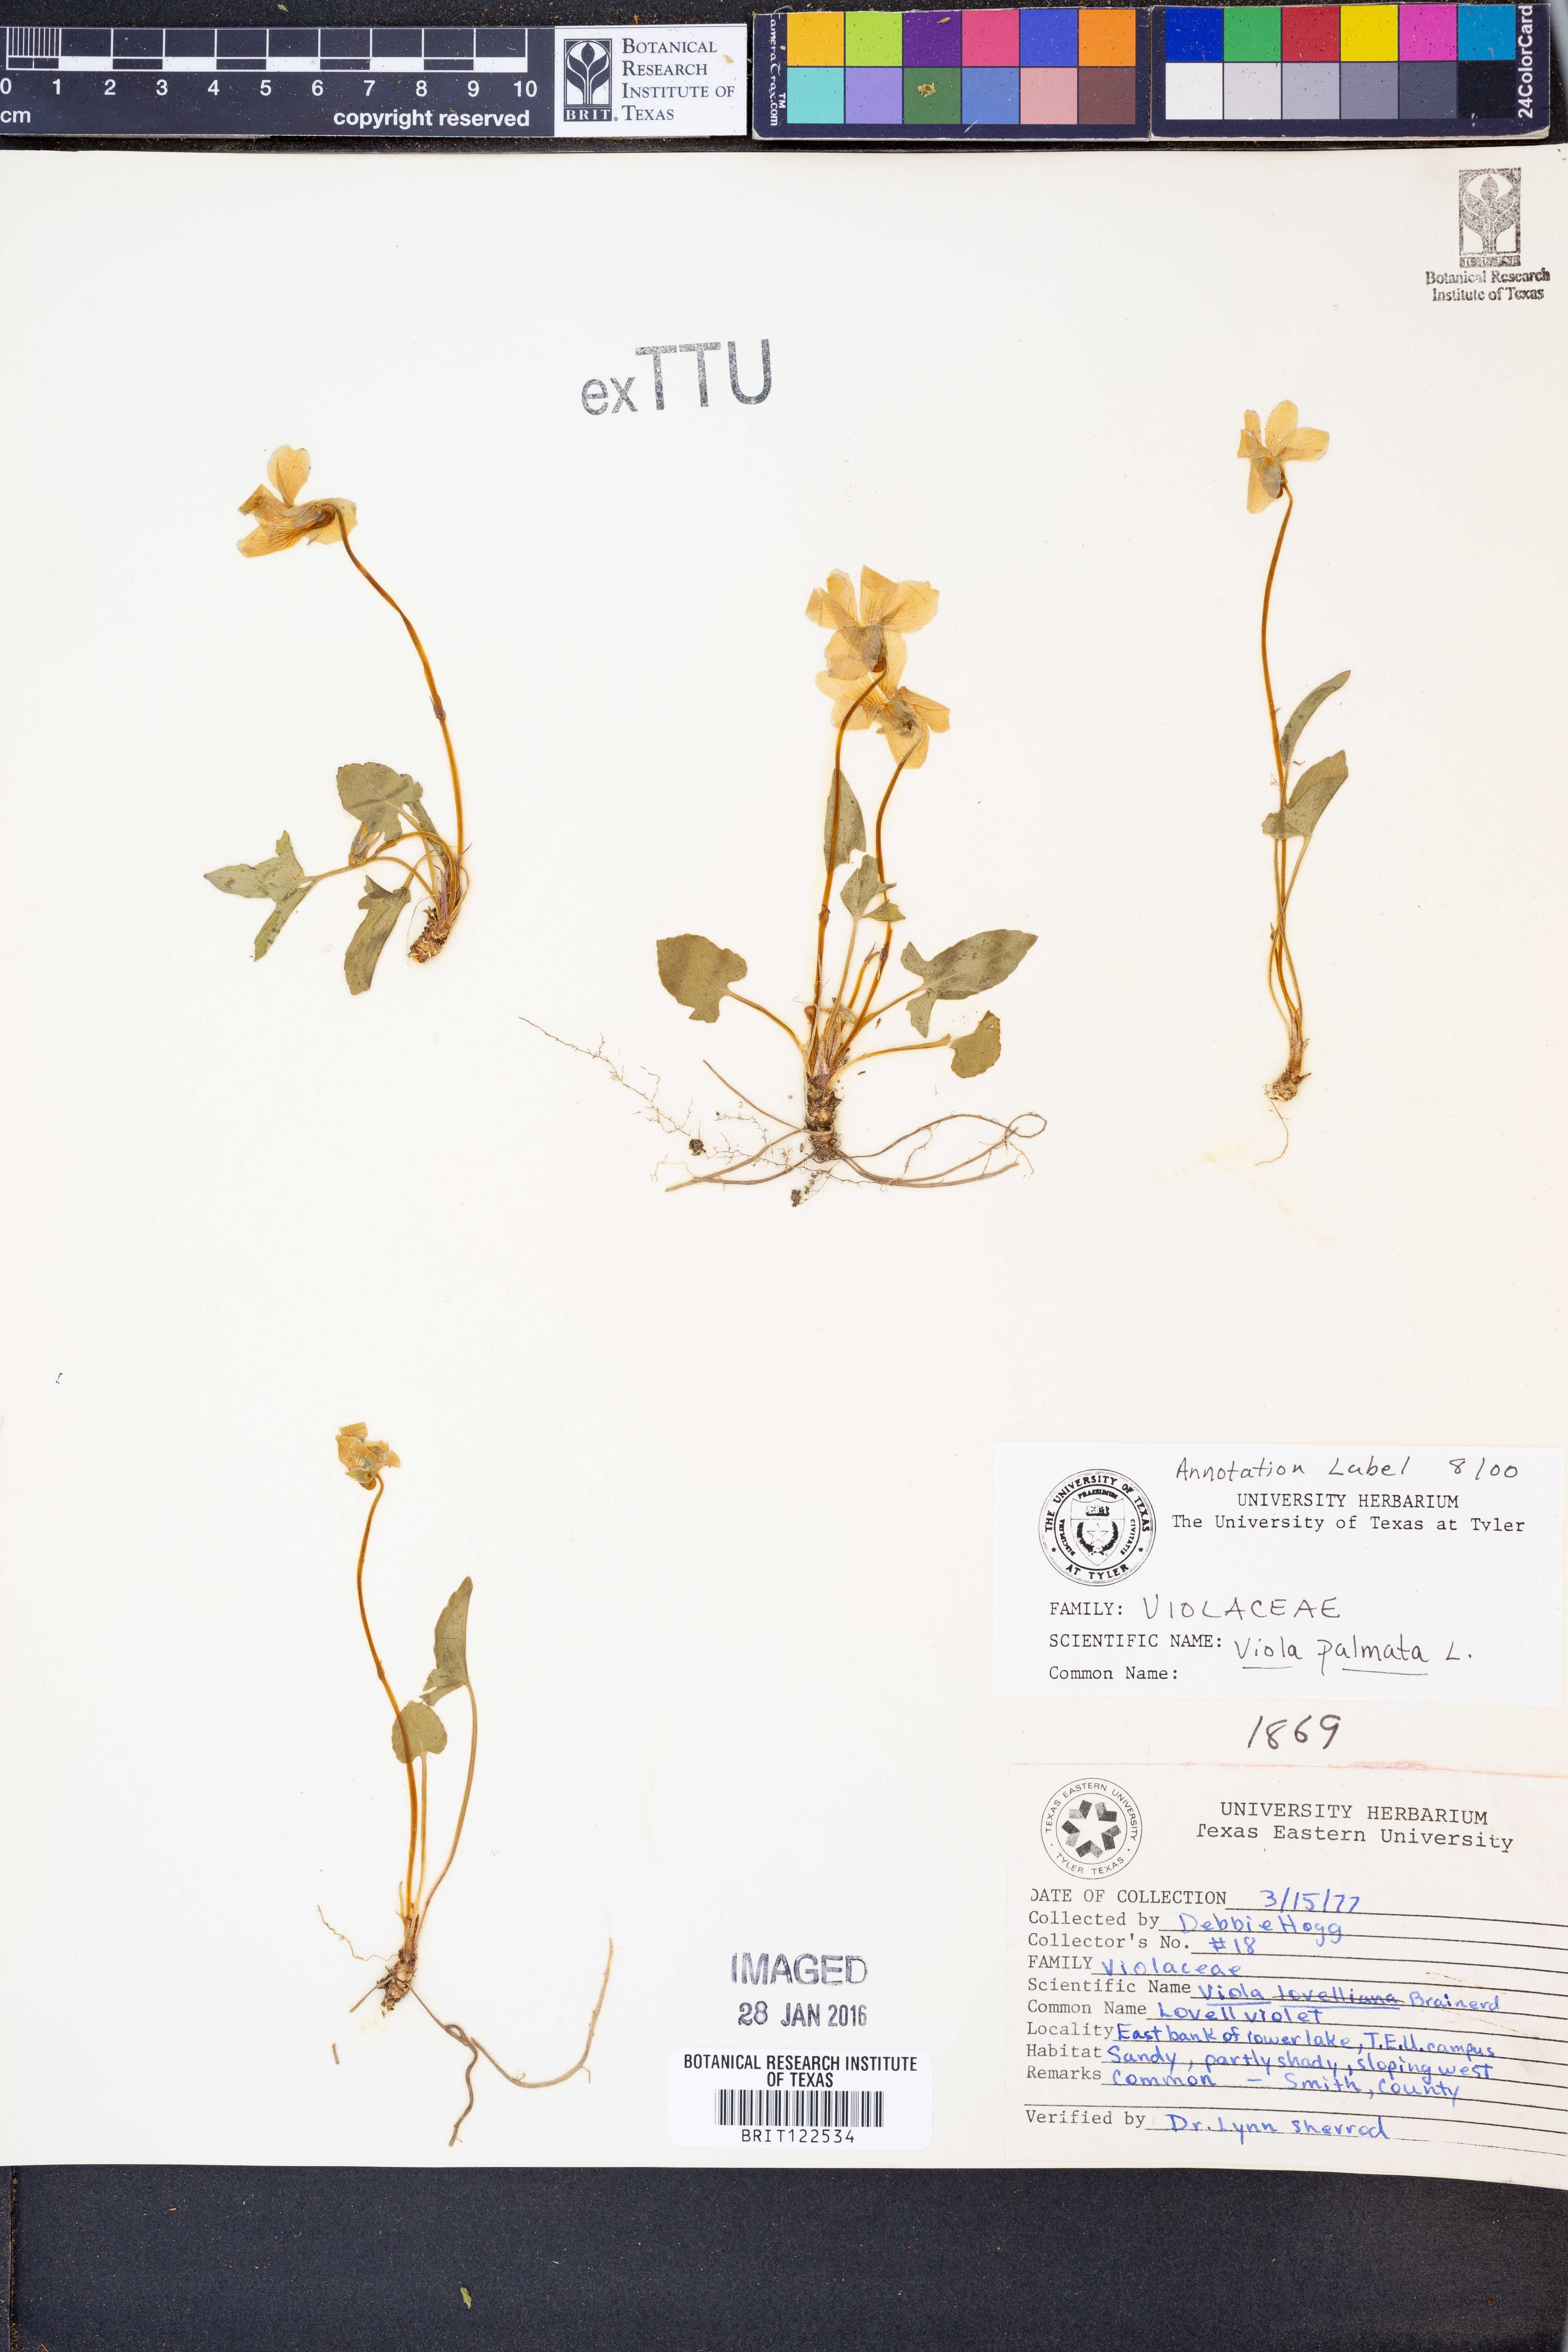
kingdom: Plantae
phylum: Tracheophyta
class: Magnoliopsida
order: Malpighiales
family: Violaceae
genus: Viola
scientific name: Viola palmata
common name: Early blue violet
